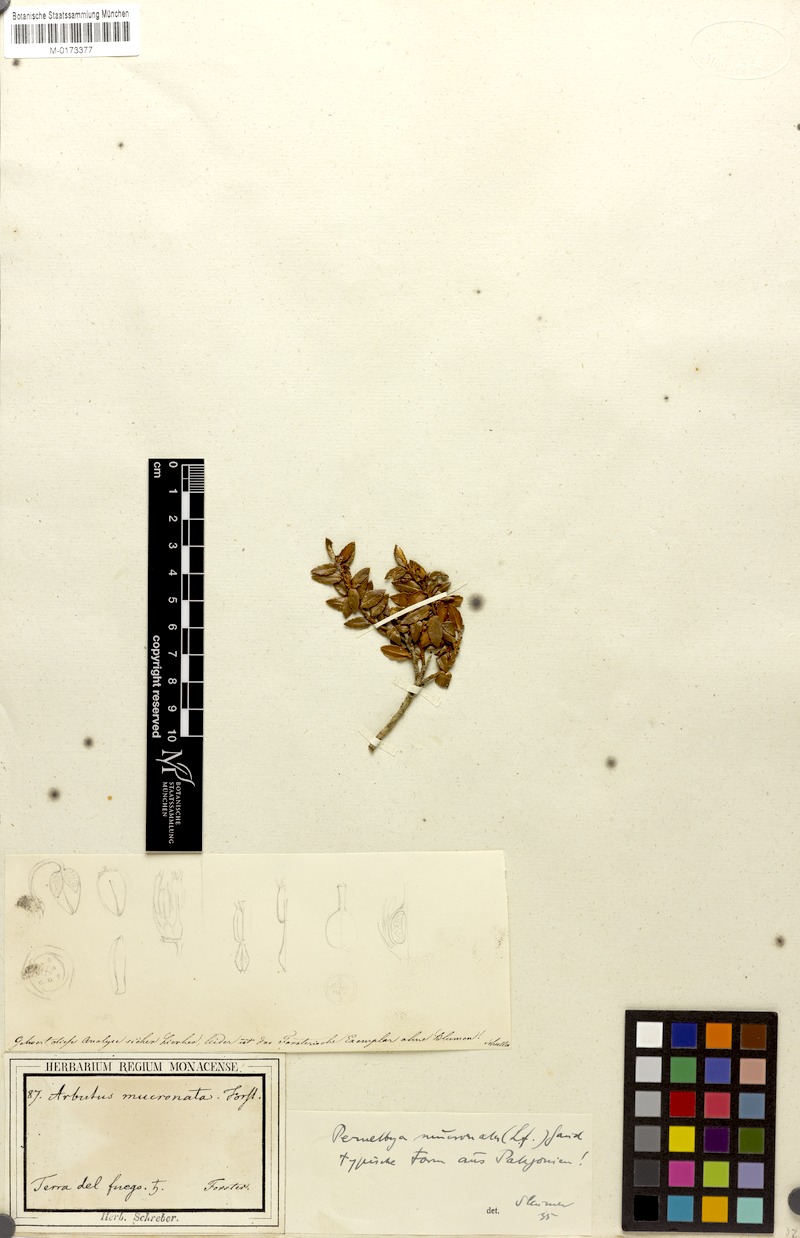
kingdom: Plantae
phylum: Tracheophyta
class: Magnoliopsida
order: Ericales
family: Ericaceae
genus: Gaultheria
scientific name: Gaultheria mucronata
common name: Prickly heath
